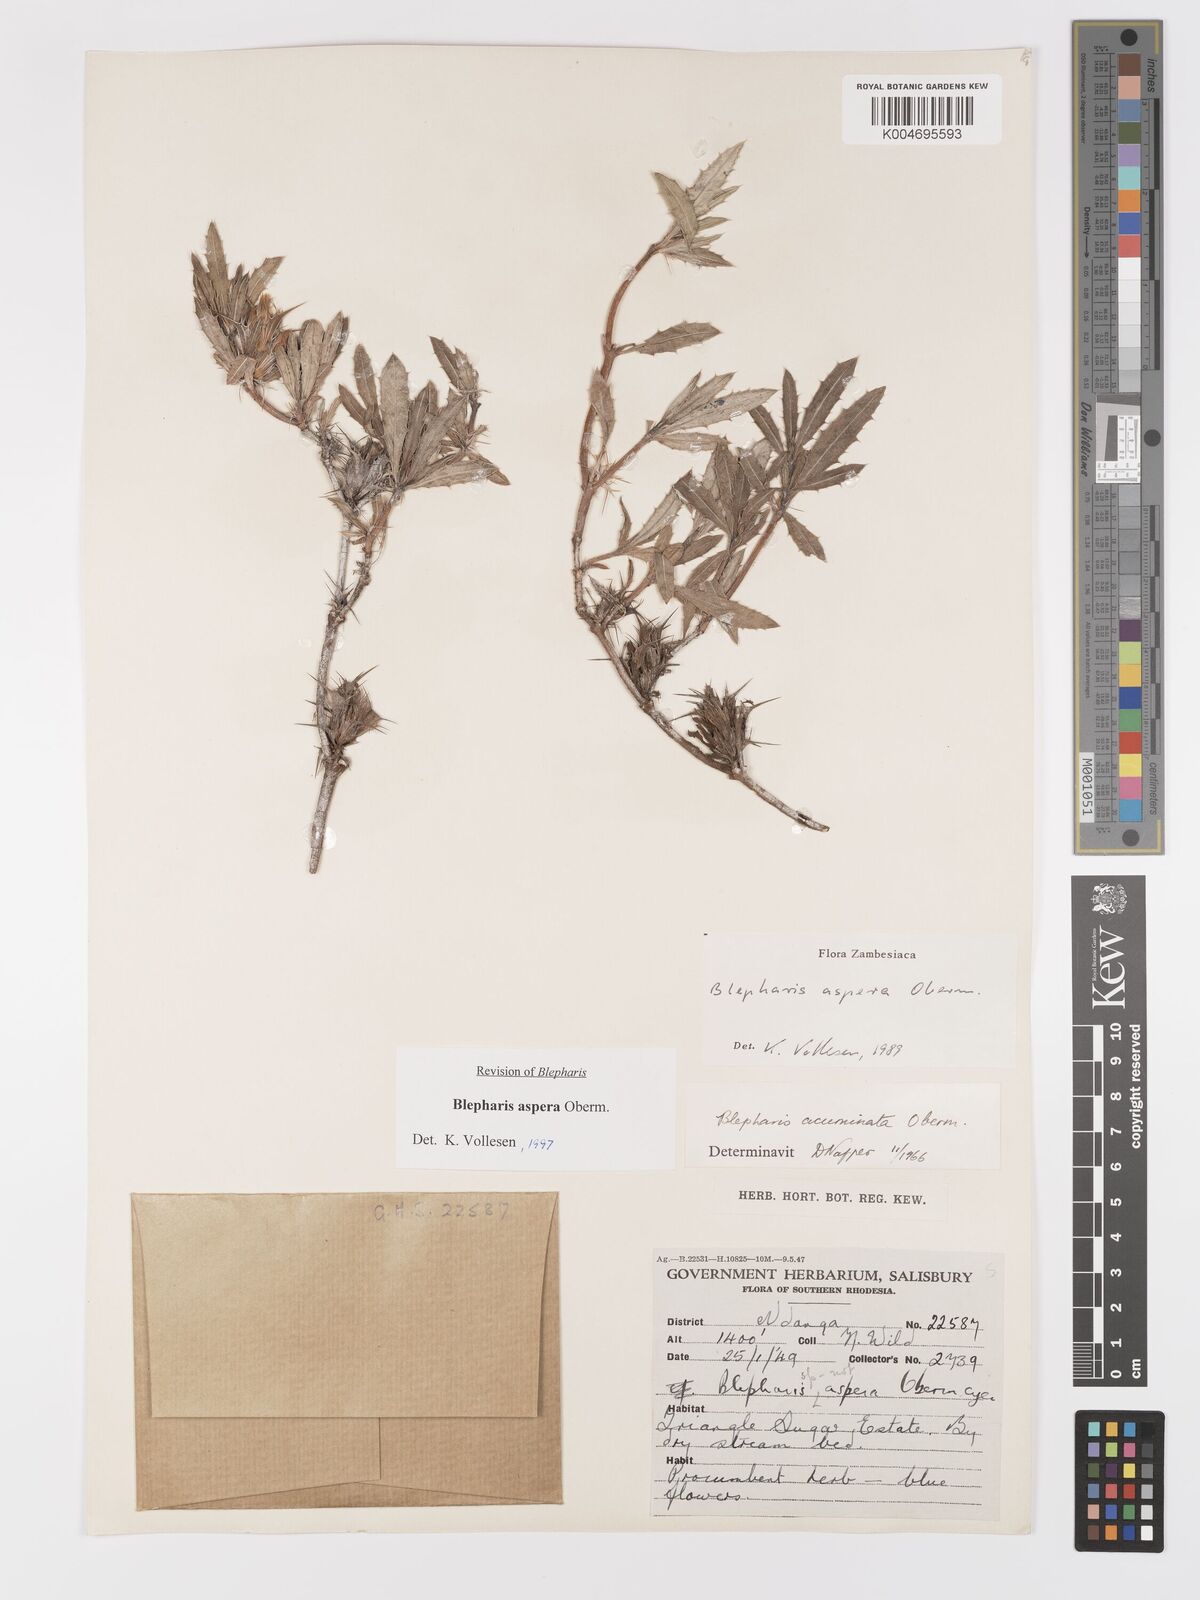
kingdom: Plantae
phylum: Tracheophyta
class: Magnoliopsida
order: Lamiales
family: Acanthaceae
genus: Blepharis
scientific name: Blepharis aspera
